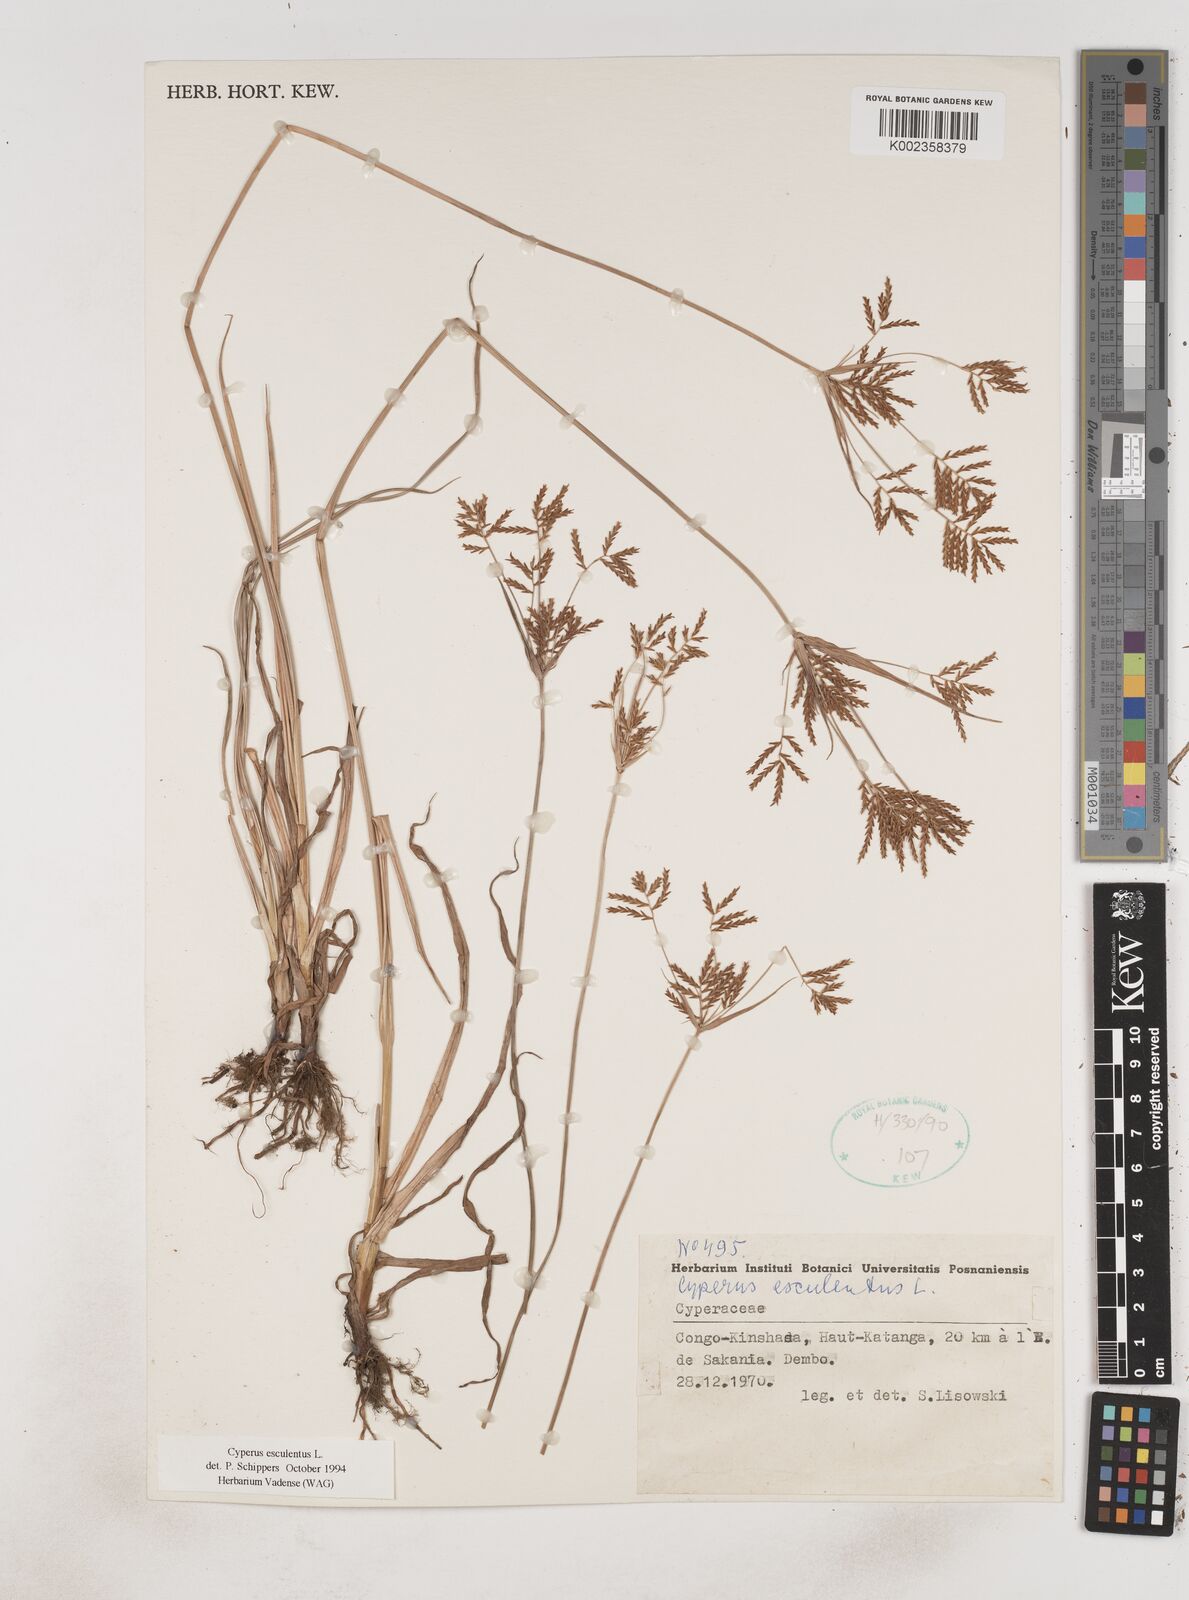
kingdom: Plantae
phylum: Tracheophyta
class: Liliopsida
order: Poales
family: Cyperaceae
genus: Cyperus
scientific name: Cyperus esculentus
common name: Yellow nutsedge
